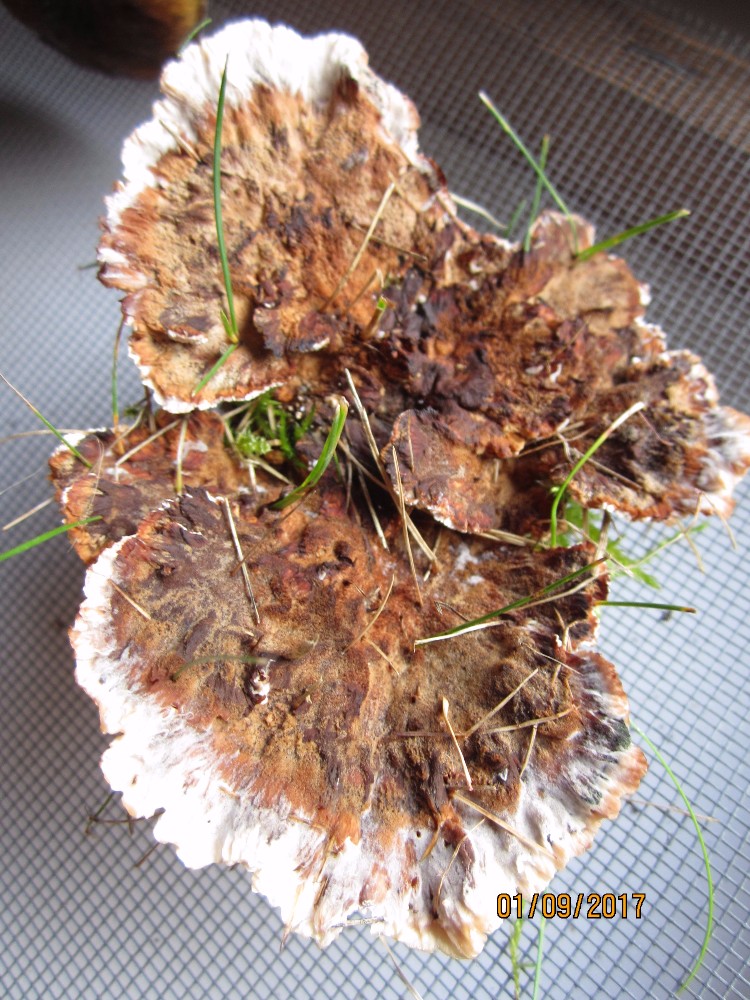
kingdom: Fungi
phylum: Basidiomycota
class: Agaricomycetes
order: Polyporales
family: Podoscyphaceae
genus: Abortiporus
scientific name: Abortiporus biennis
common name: rødmende pjalteporesvamp
